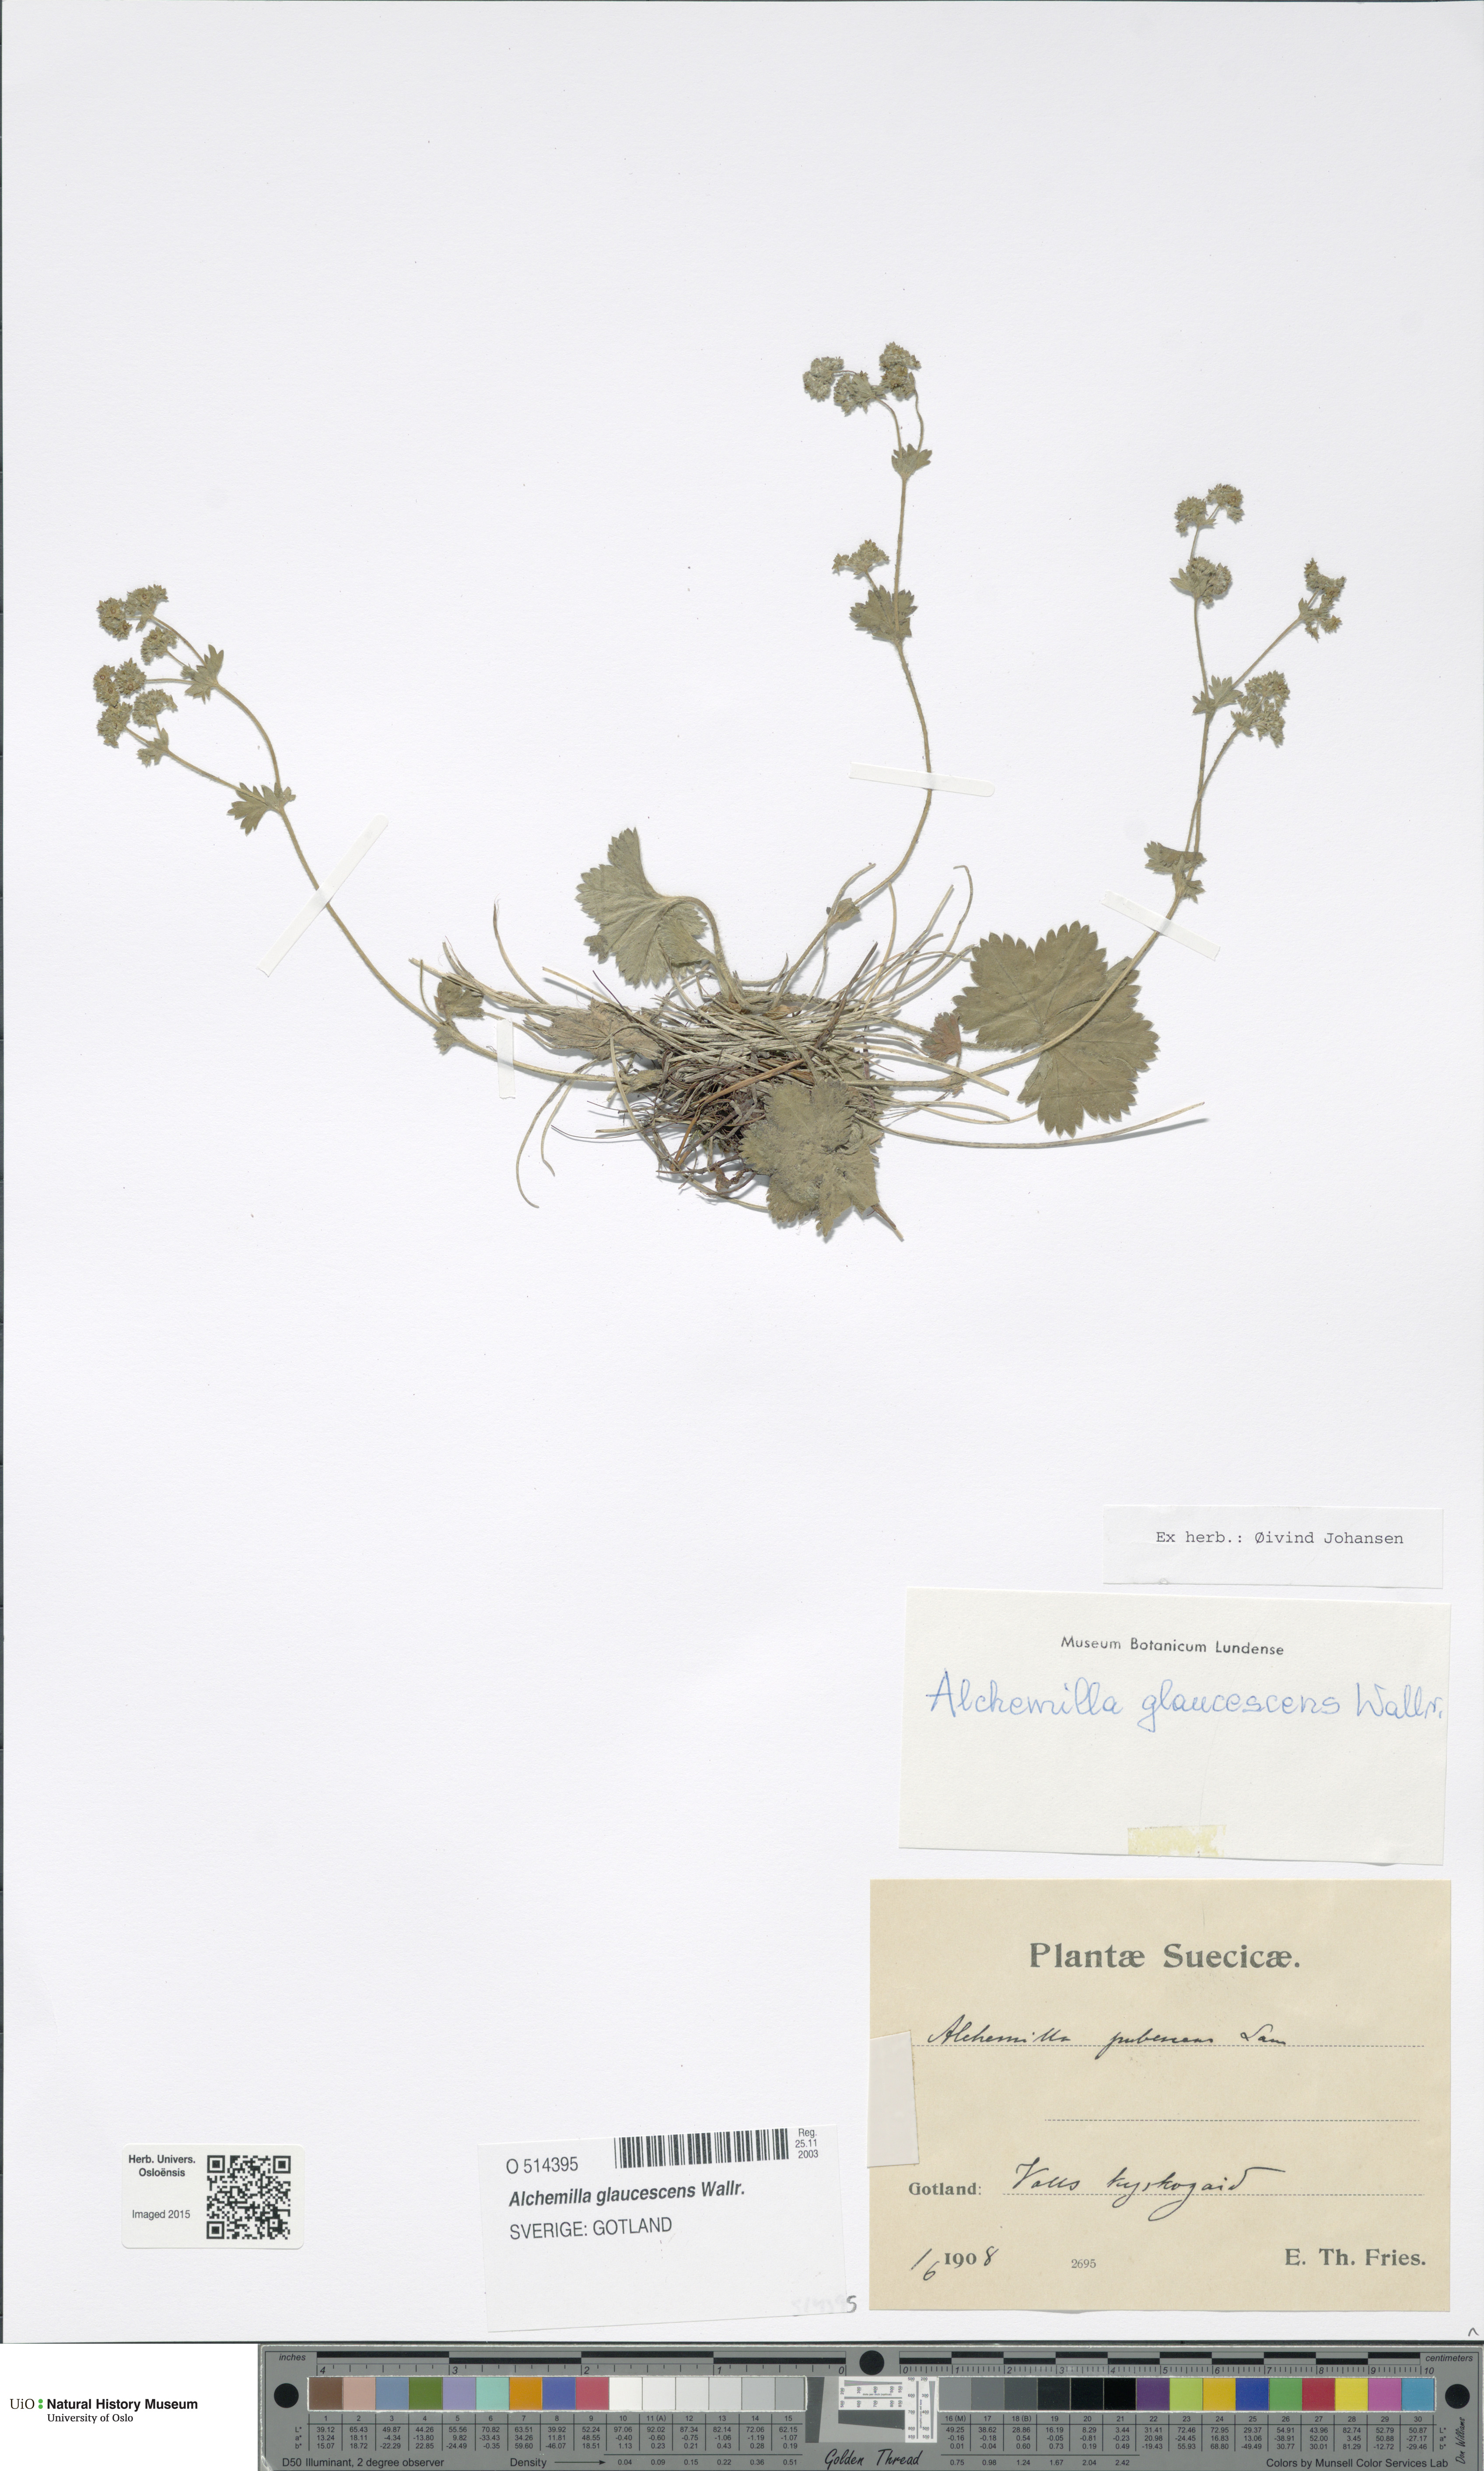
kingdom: Plantae
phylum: Tracheophyta
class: Magnoliopsida
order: Rosales
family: Rosaceae
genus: Alchemilla
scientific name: Alchemilla glaucescens
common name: Silky lady's mantle
